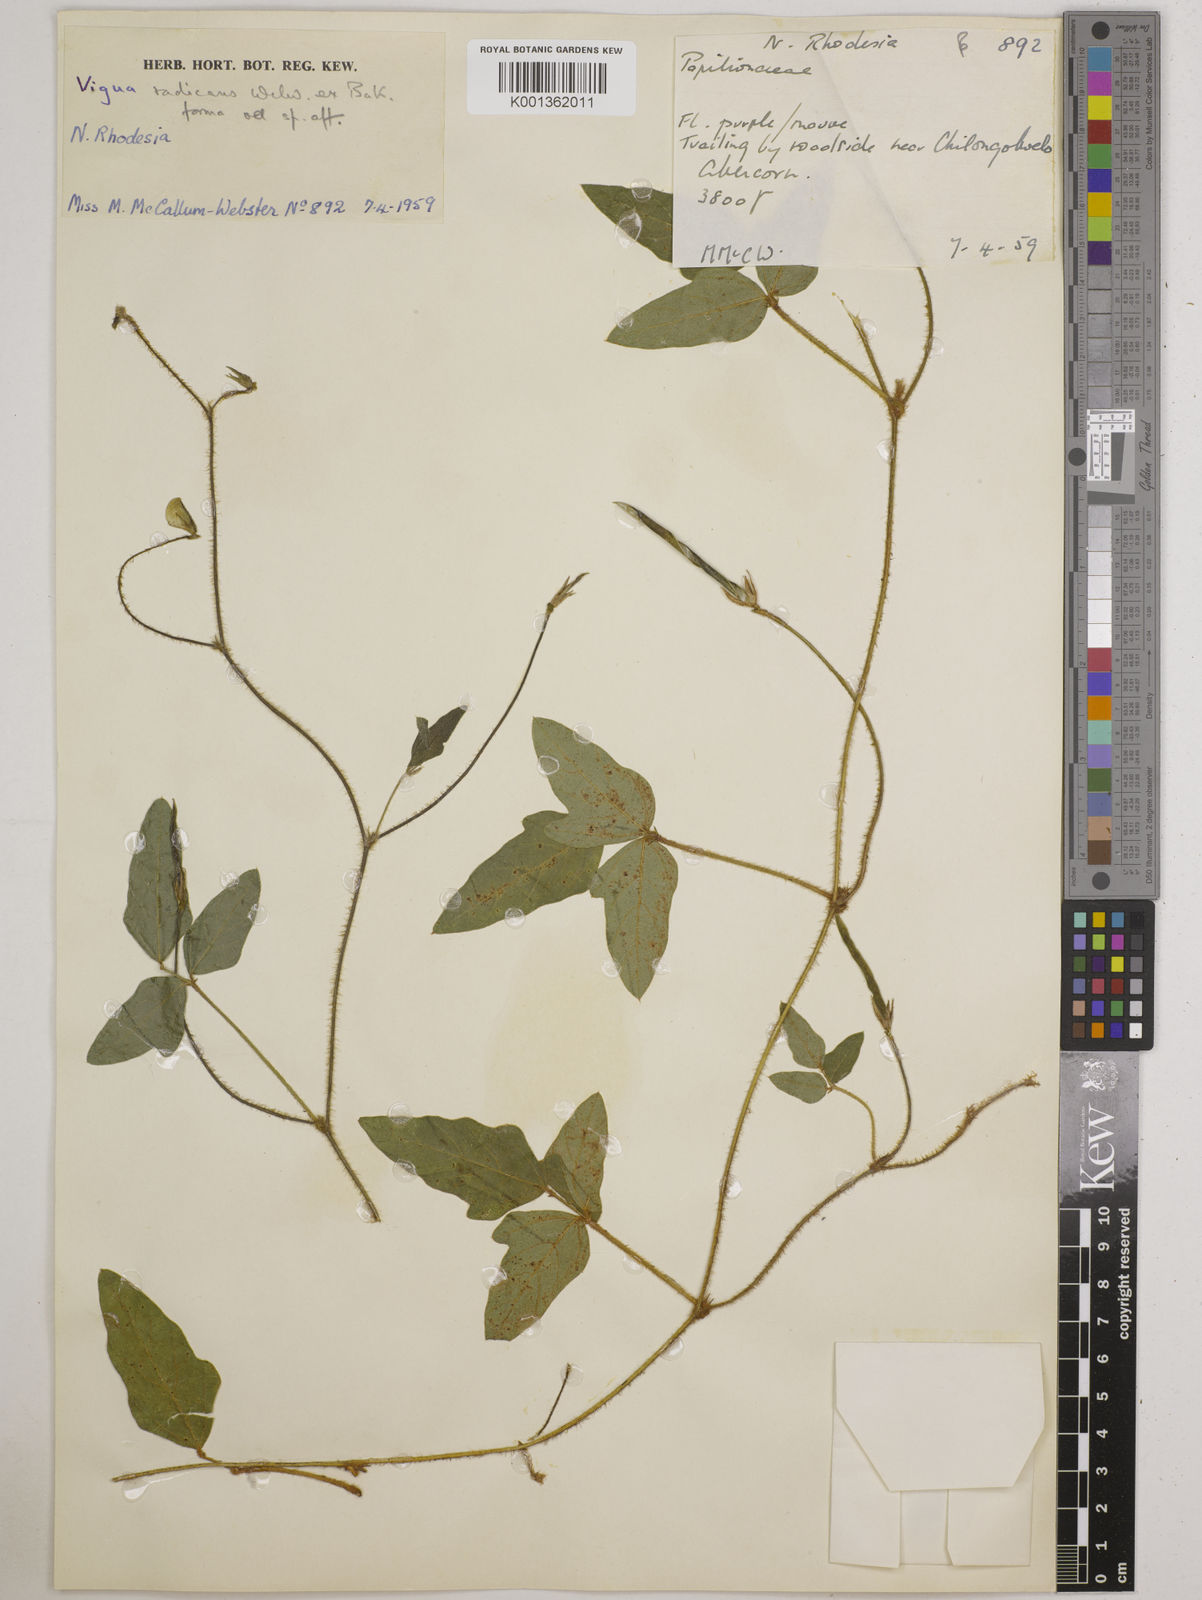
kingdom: Plantae
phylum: Tracheophyta
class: Magnoliopsida
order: Fabales
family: Fabaceae
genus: Vigna
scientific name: Vigna radicans
